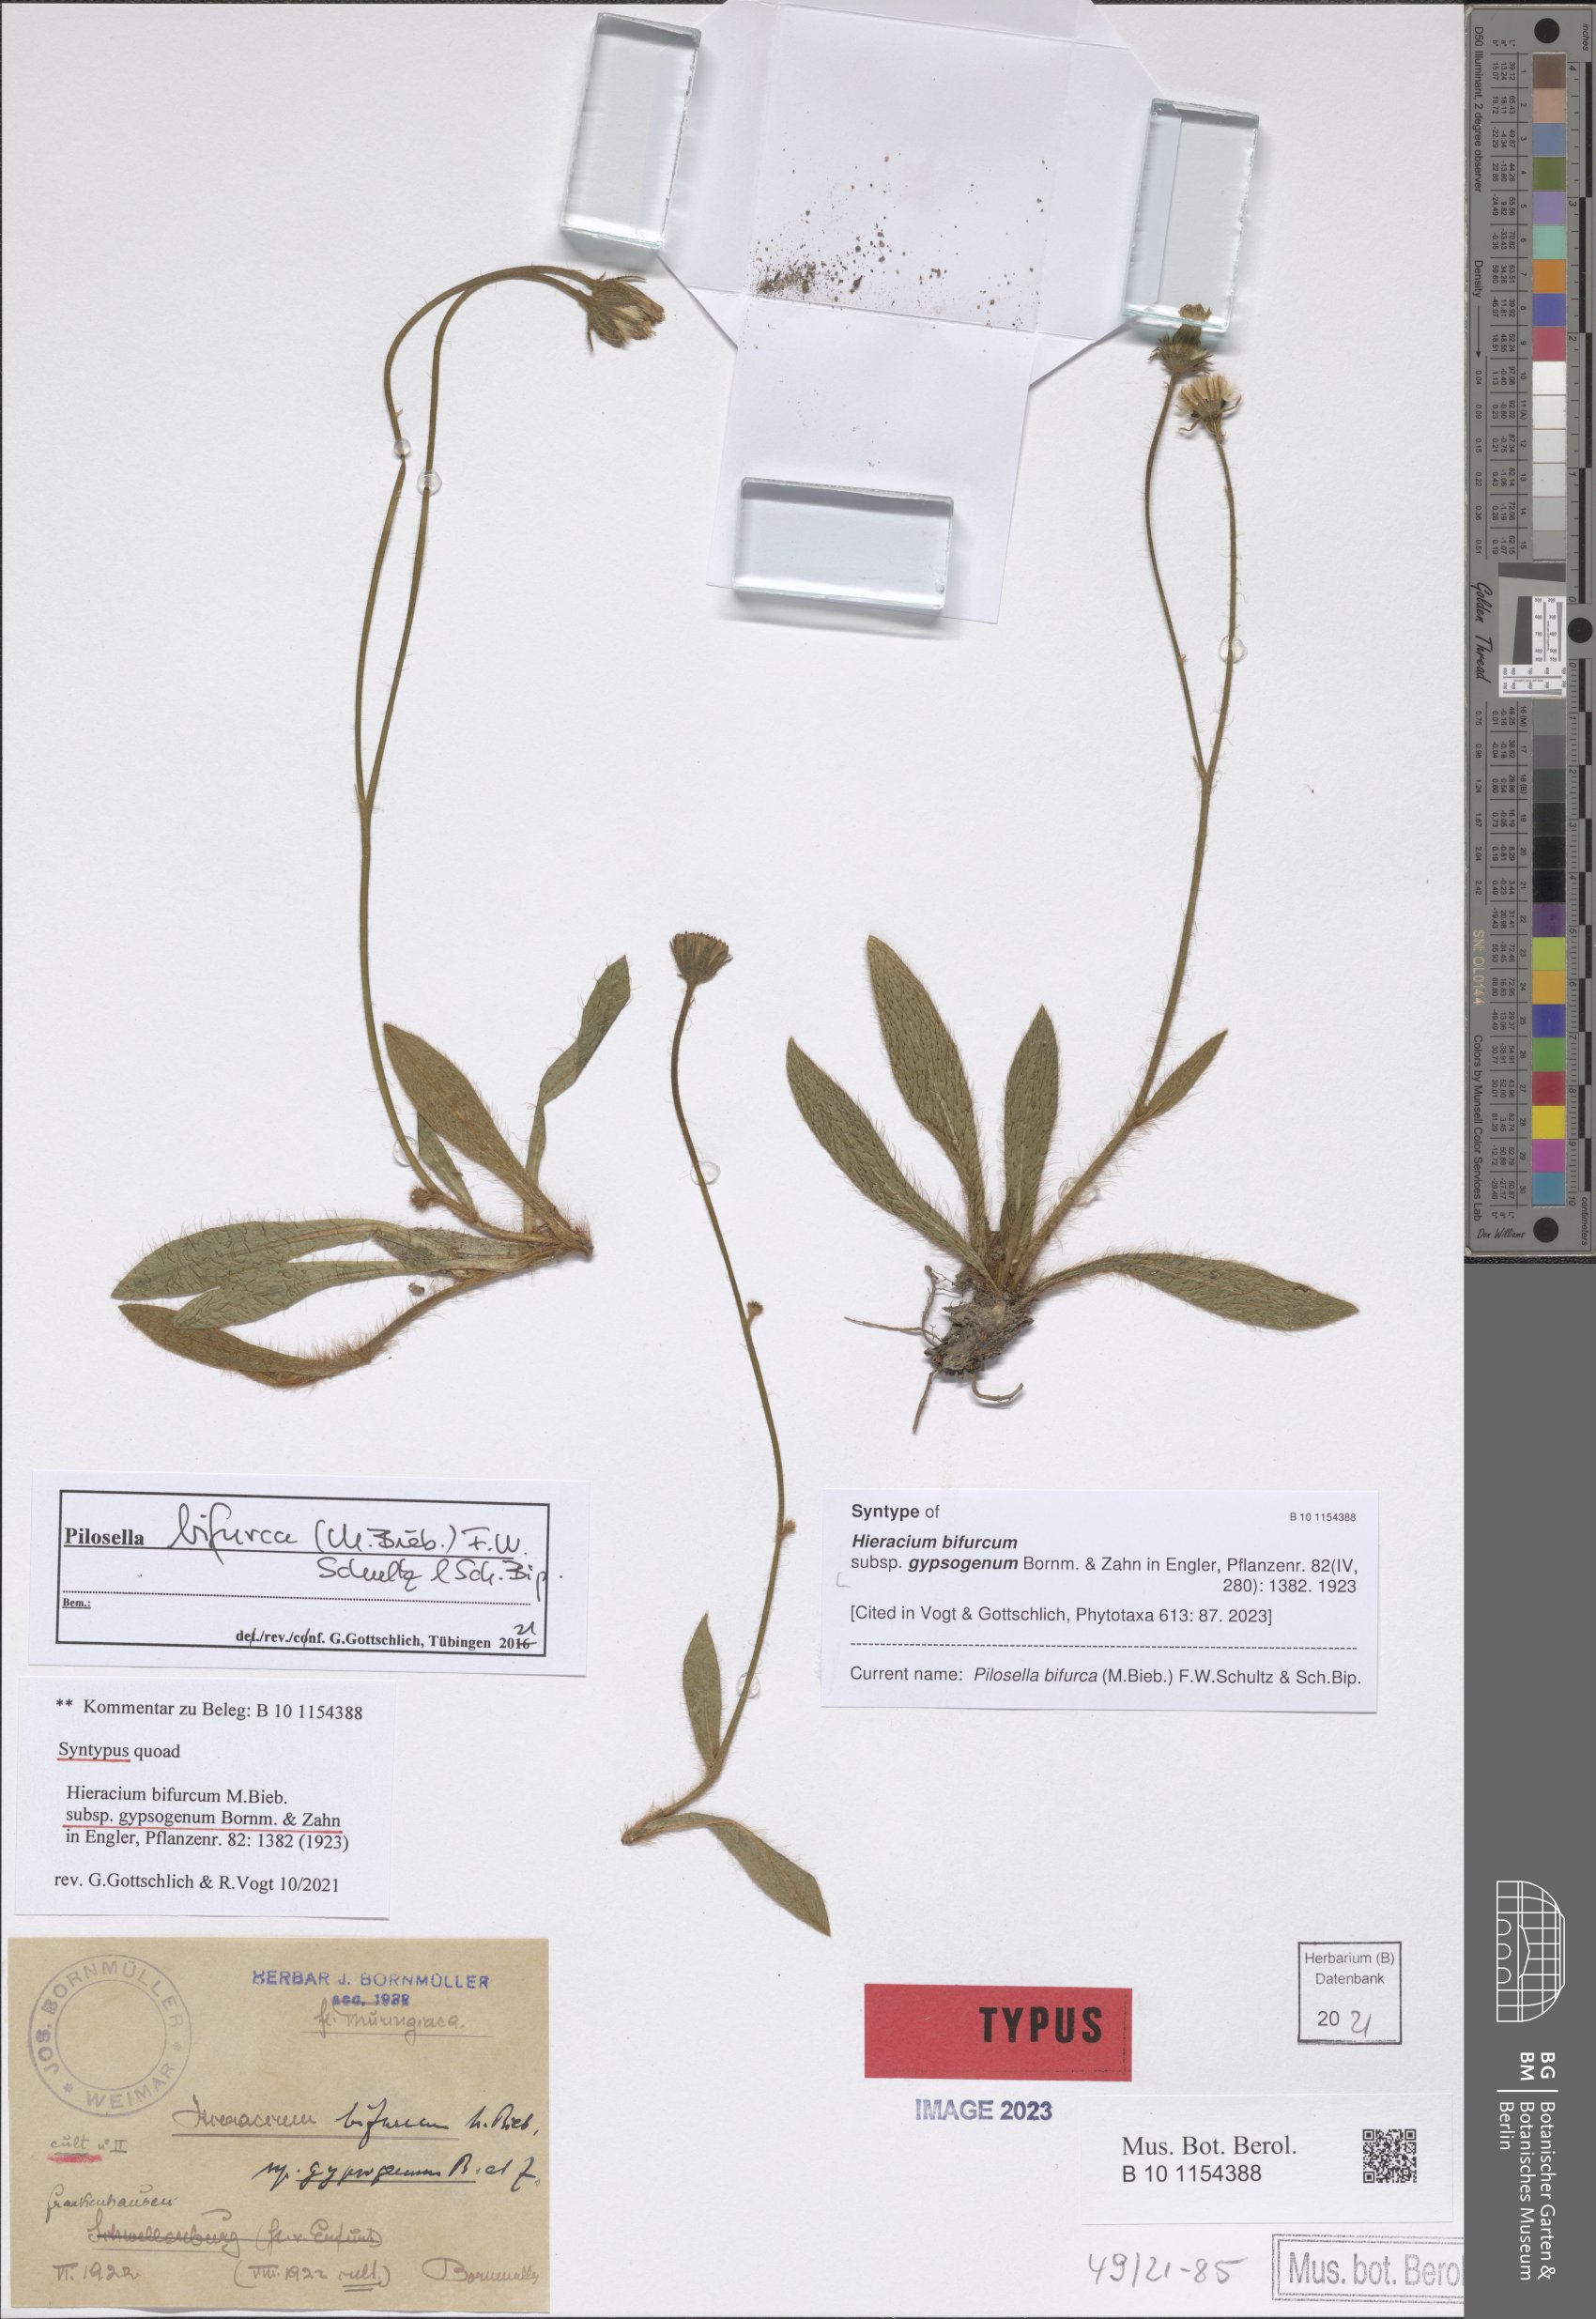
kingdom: Plantae
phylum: Tracheophyta
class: Magnoliopsida
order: Asterales
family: Asteraceae
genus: Pilosella
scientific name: Pilosella bifurca
